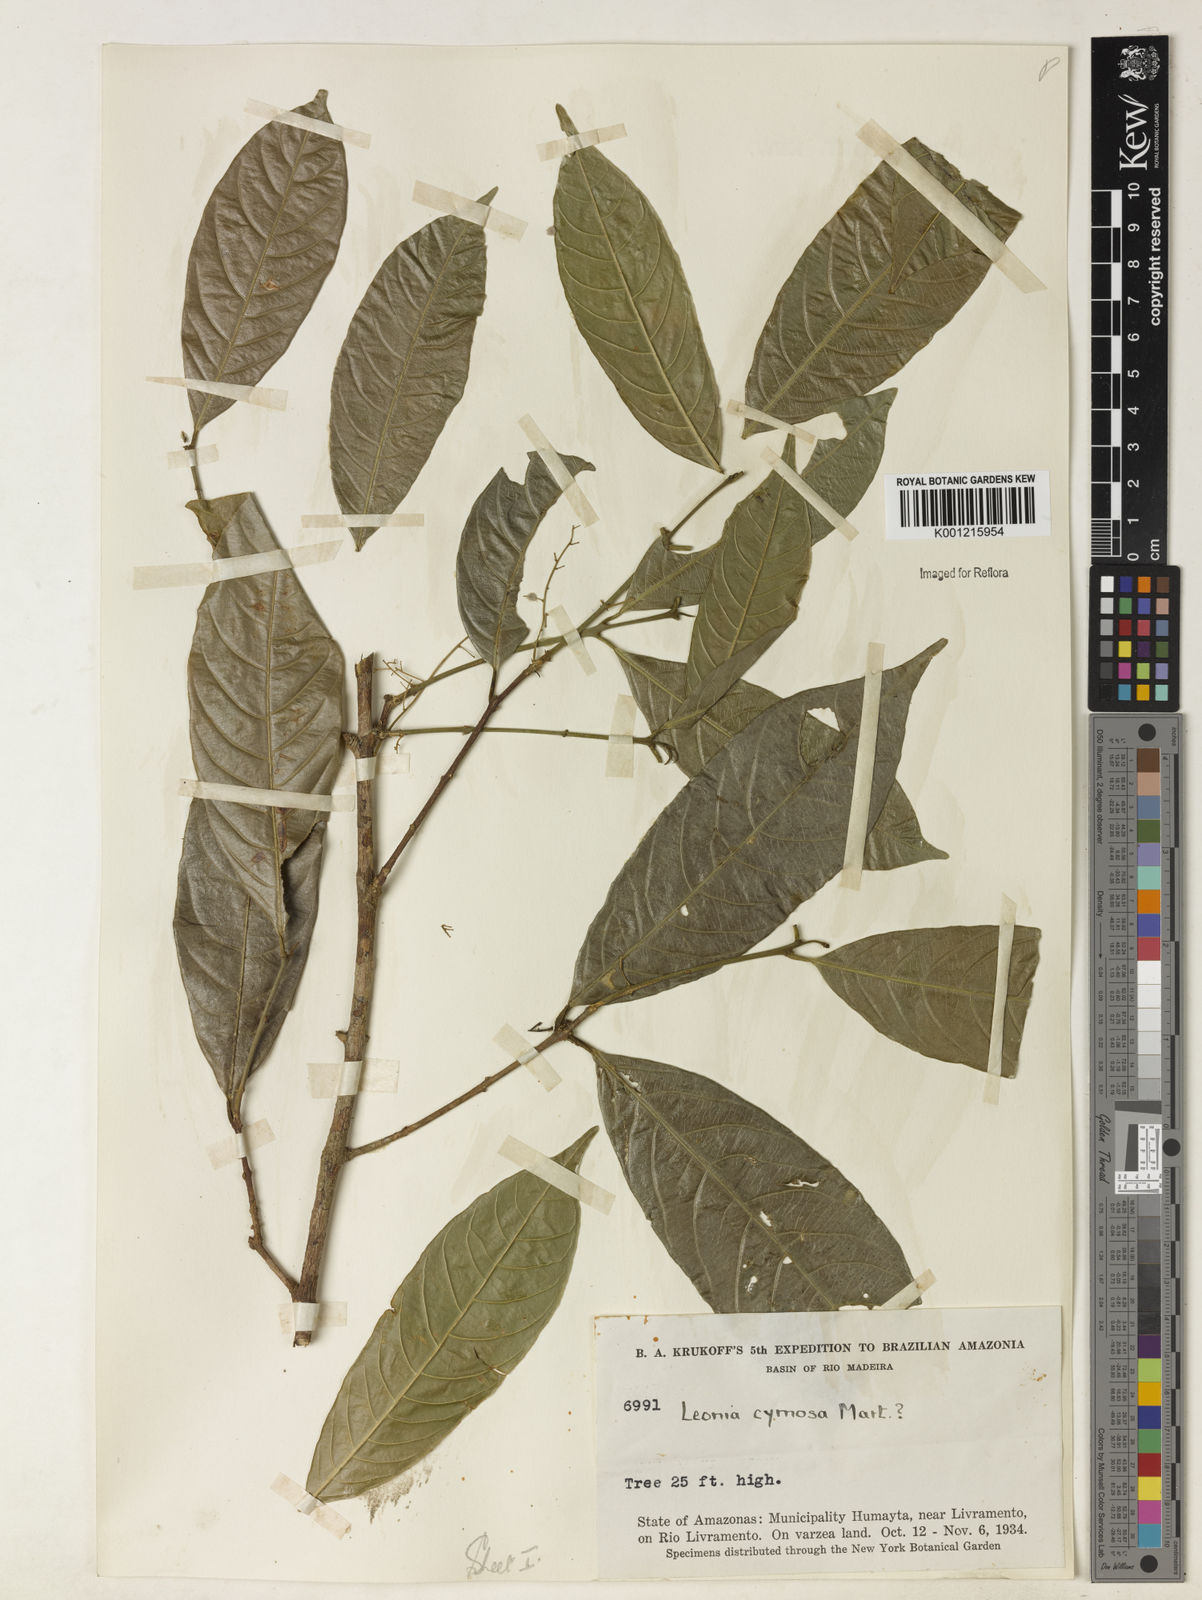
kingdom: Plantae
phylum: Tracheophyta
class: Magnoliopsida
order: Malpighiales
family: Violaceae
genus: Leonia
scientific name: Leonia cymosa
